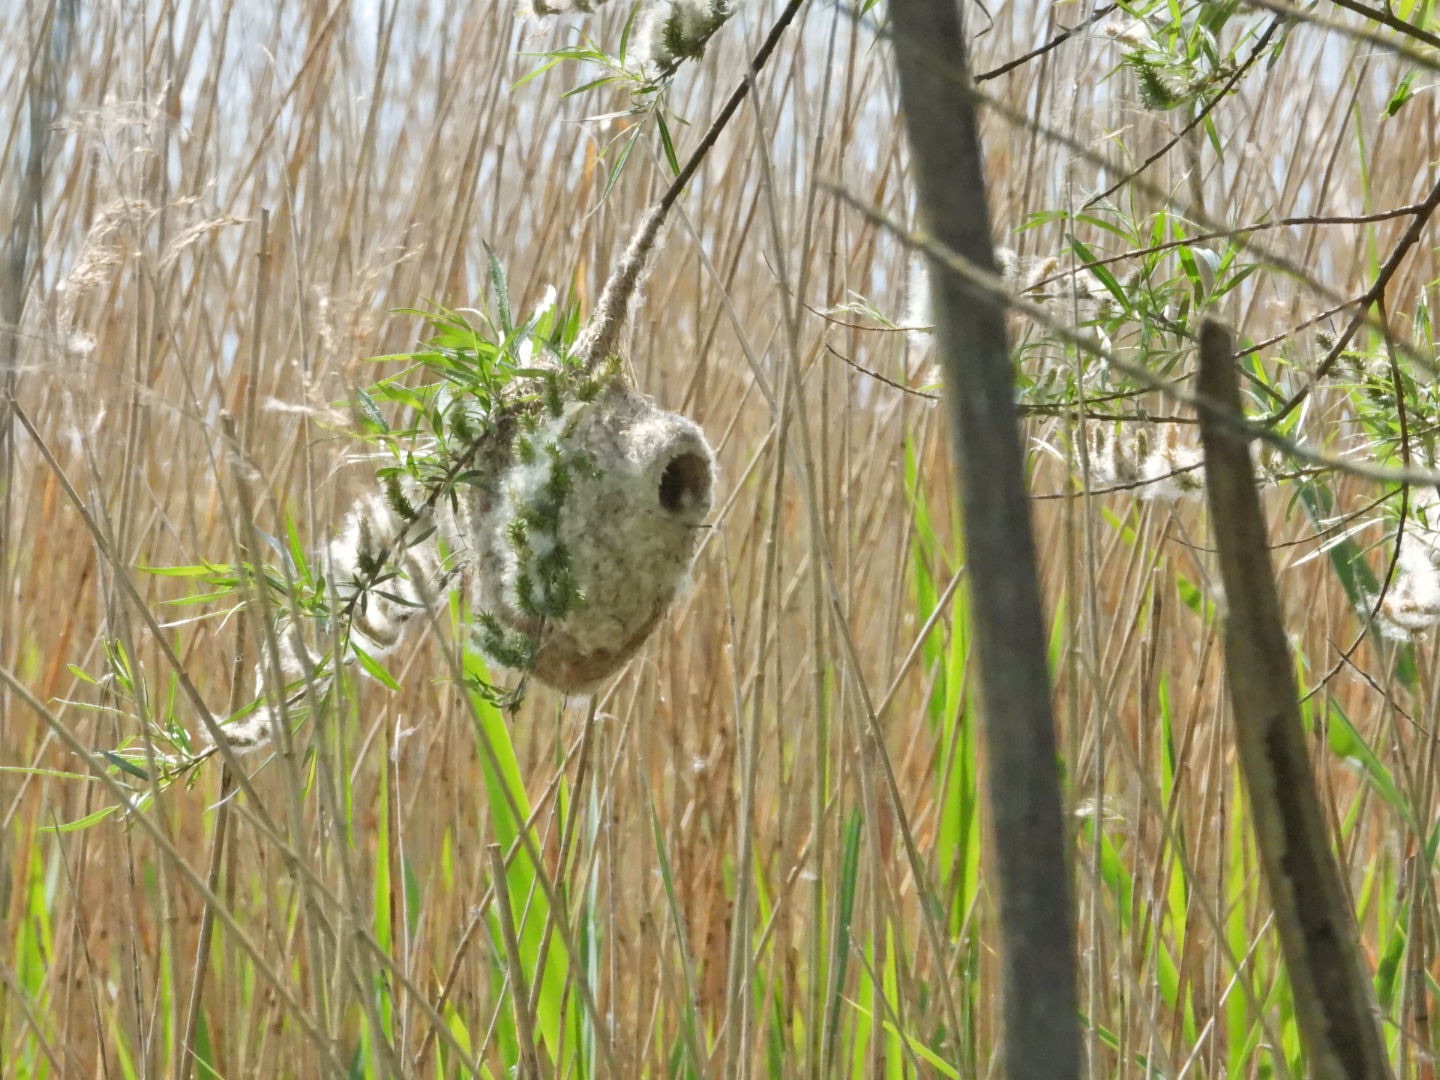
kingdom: Animalia
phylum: Chordata
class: Aves
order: Passeriformes
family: Remizidae
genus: Remiz
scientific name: Remiz pendulinus
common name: Pungmejse
